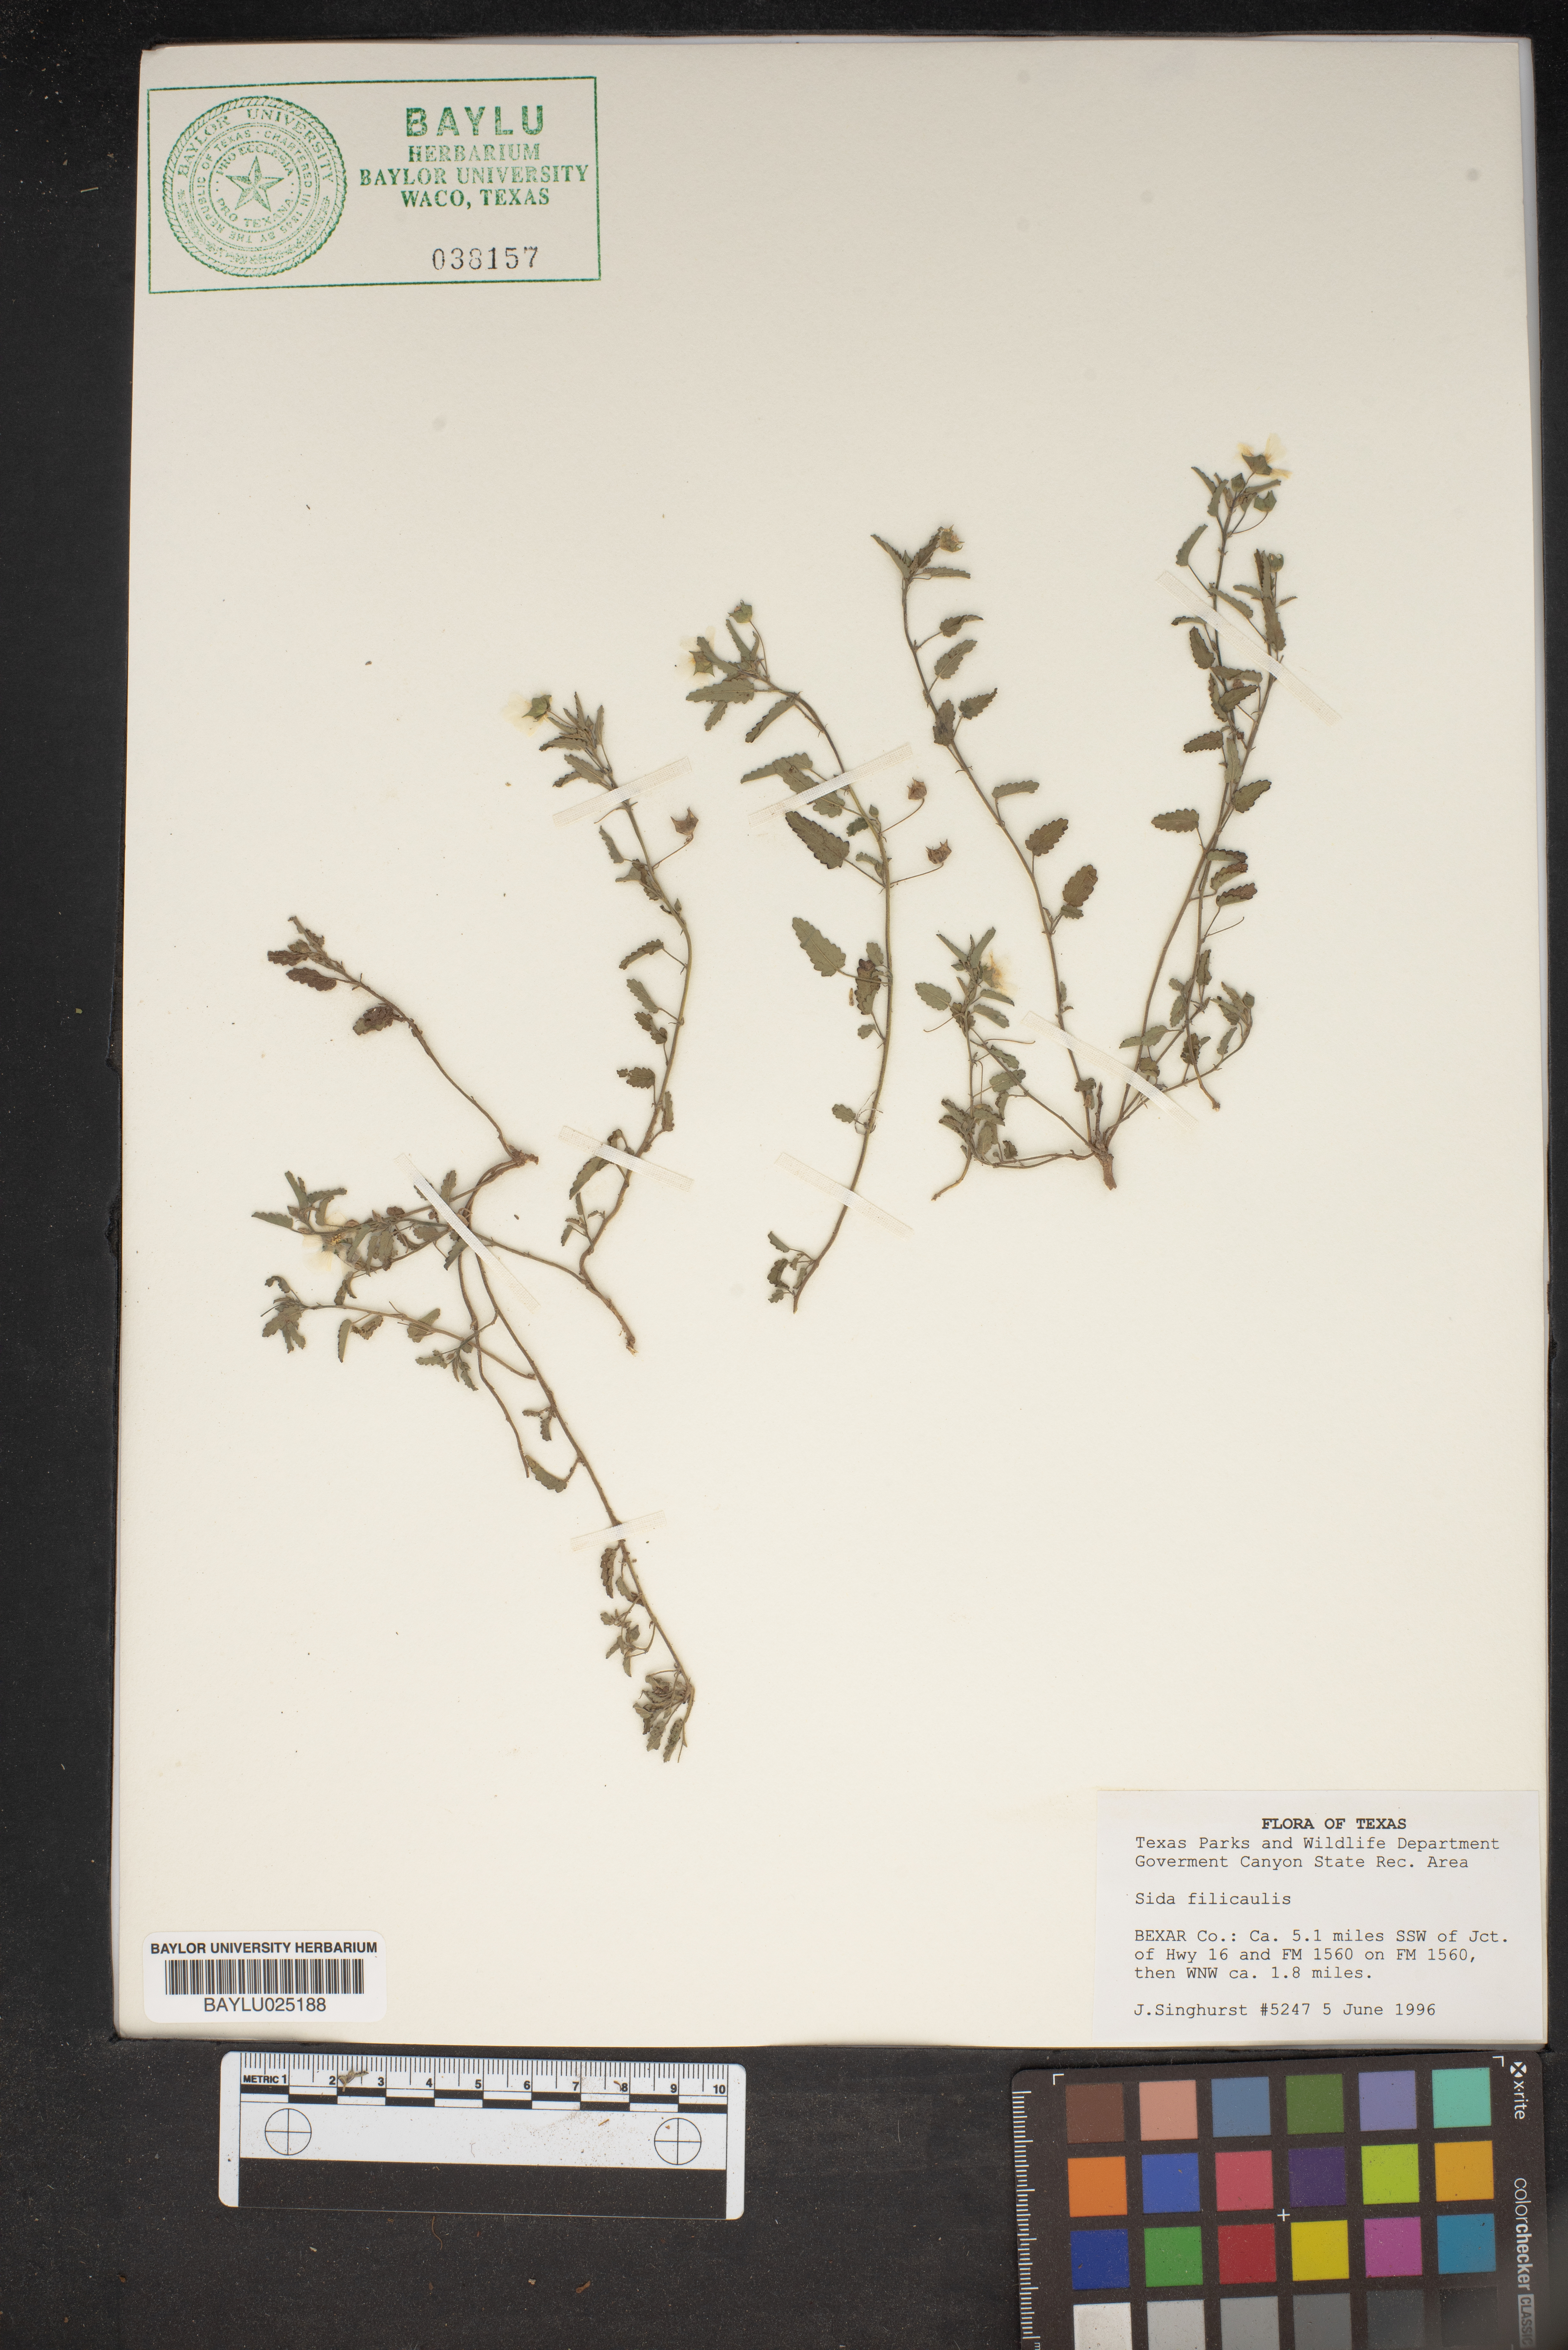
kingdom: Plantae
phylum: Tracheophyta
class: Magnoliopsida
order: Malvales
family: Malvaceae
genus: Sida
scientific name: Sida abutilifolia
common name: Spreading fanpetals
